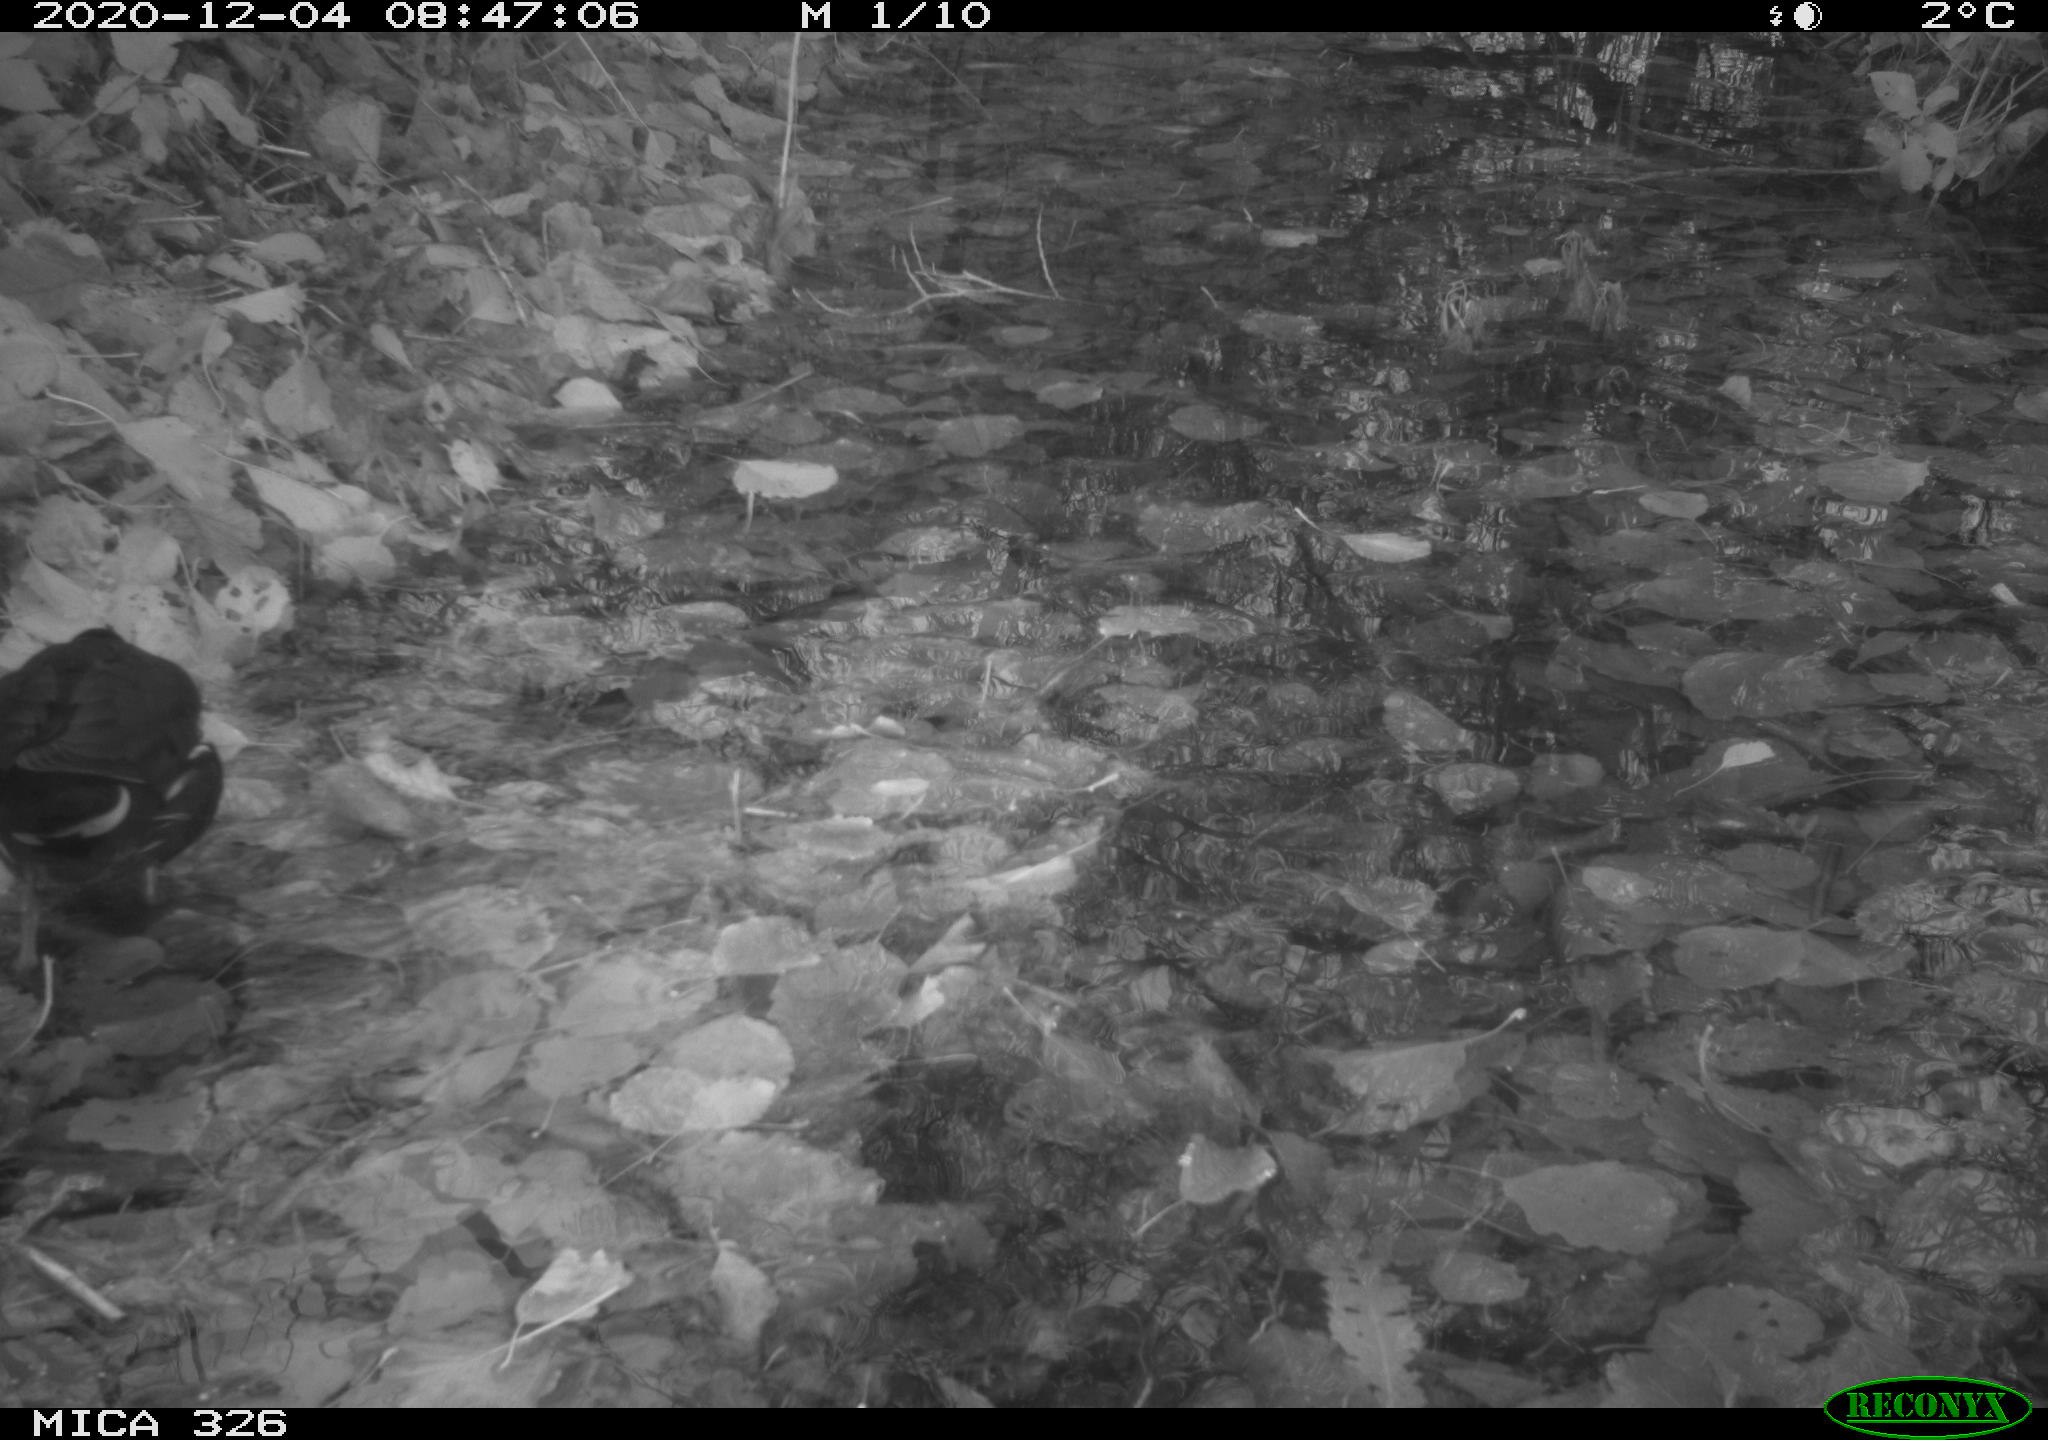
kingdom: Animalia
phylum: Chordata
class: Aves
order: Gruiformes
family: Rallidae
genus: Gallinula
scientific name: Gallinula chloropus
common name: Common moorhen
